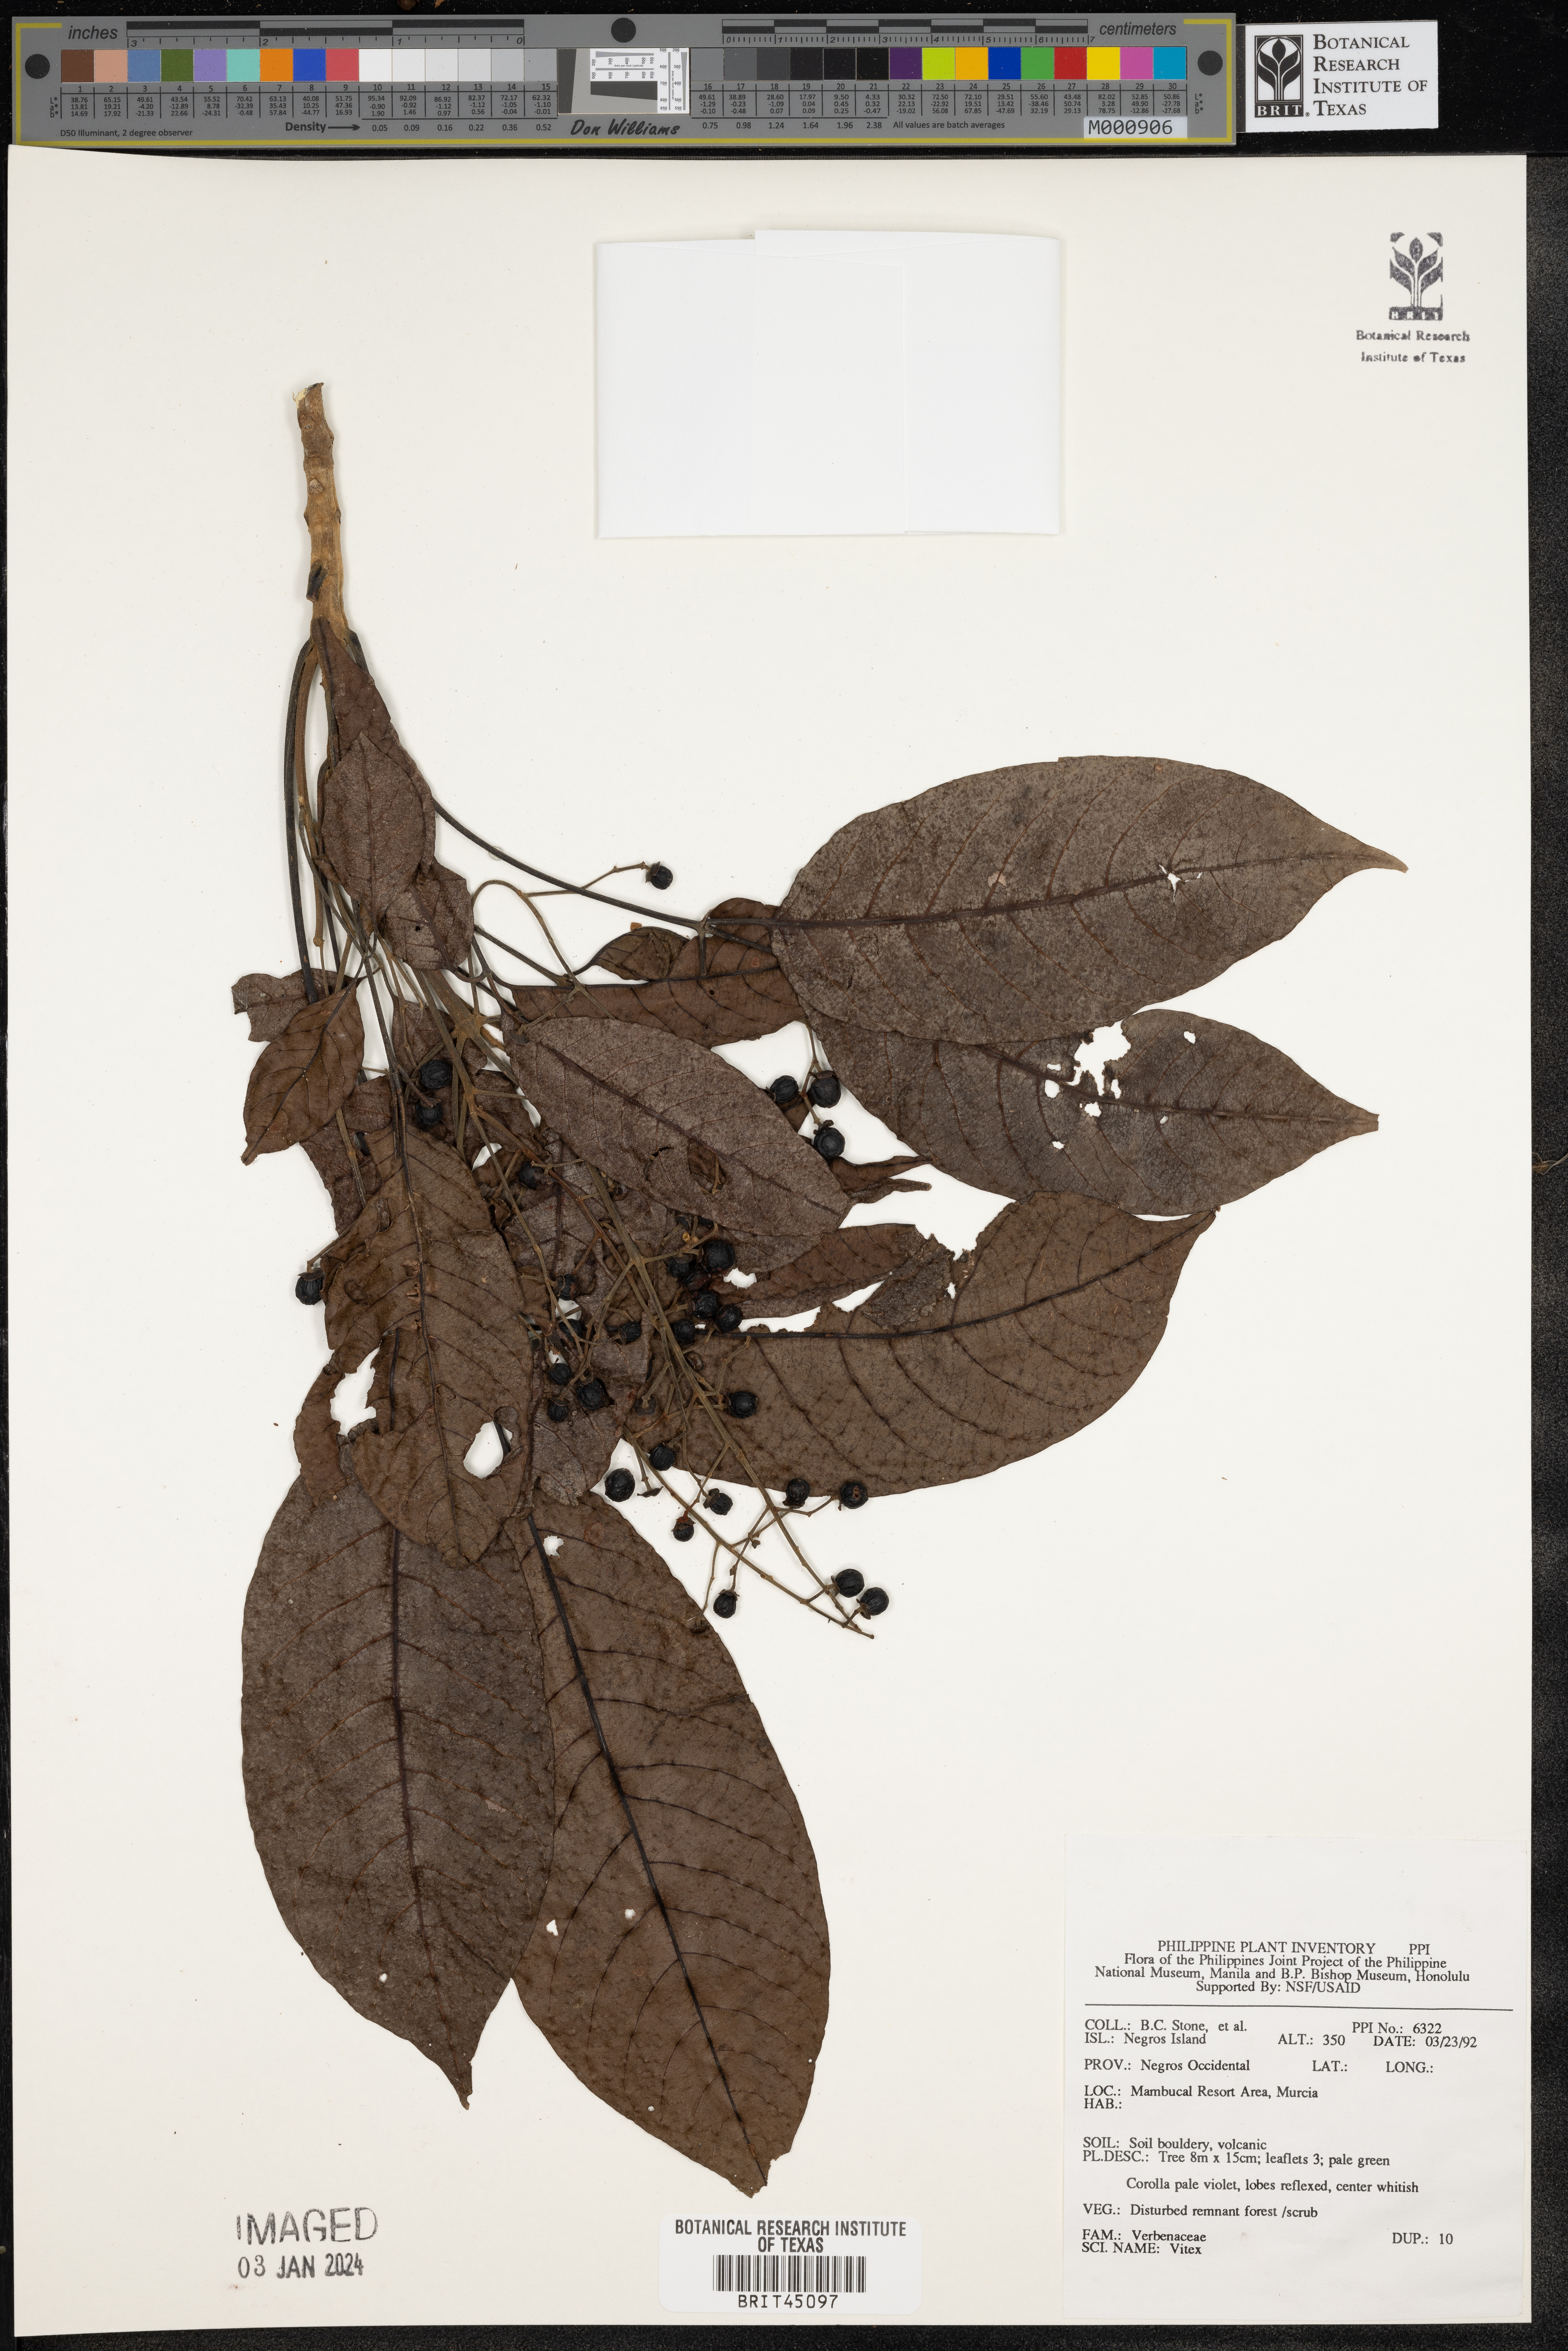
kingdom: Plantae
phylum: Tracheophyta
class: Magnoliopsida
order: Lamiales
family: Lamiaceae
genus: Vitex
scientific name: Vitex
